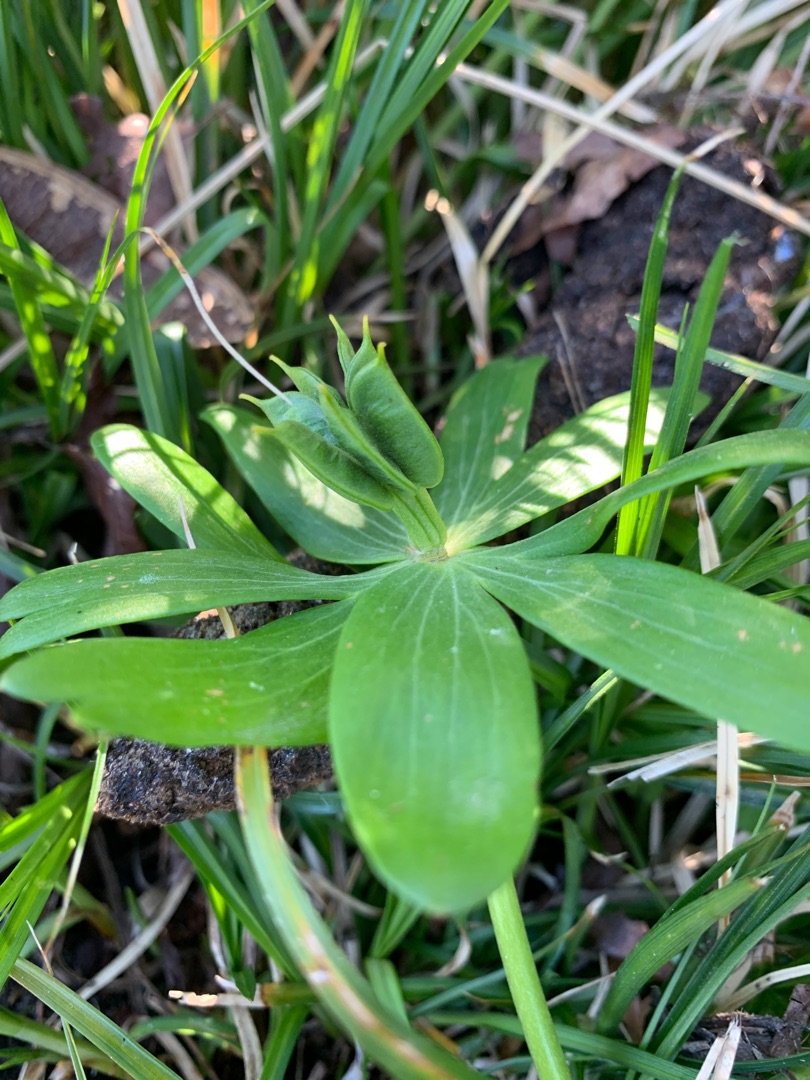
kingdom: Plantae
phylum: Tracheophyta
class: Magnoliopsida
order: Ranunculales
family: Ranunculaceae
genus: Eranthis
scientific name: Eranthis hyemalis
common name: Erantis
